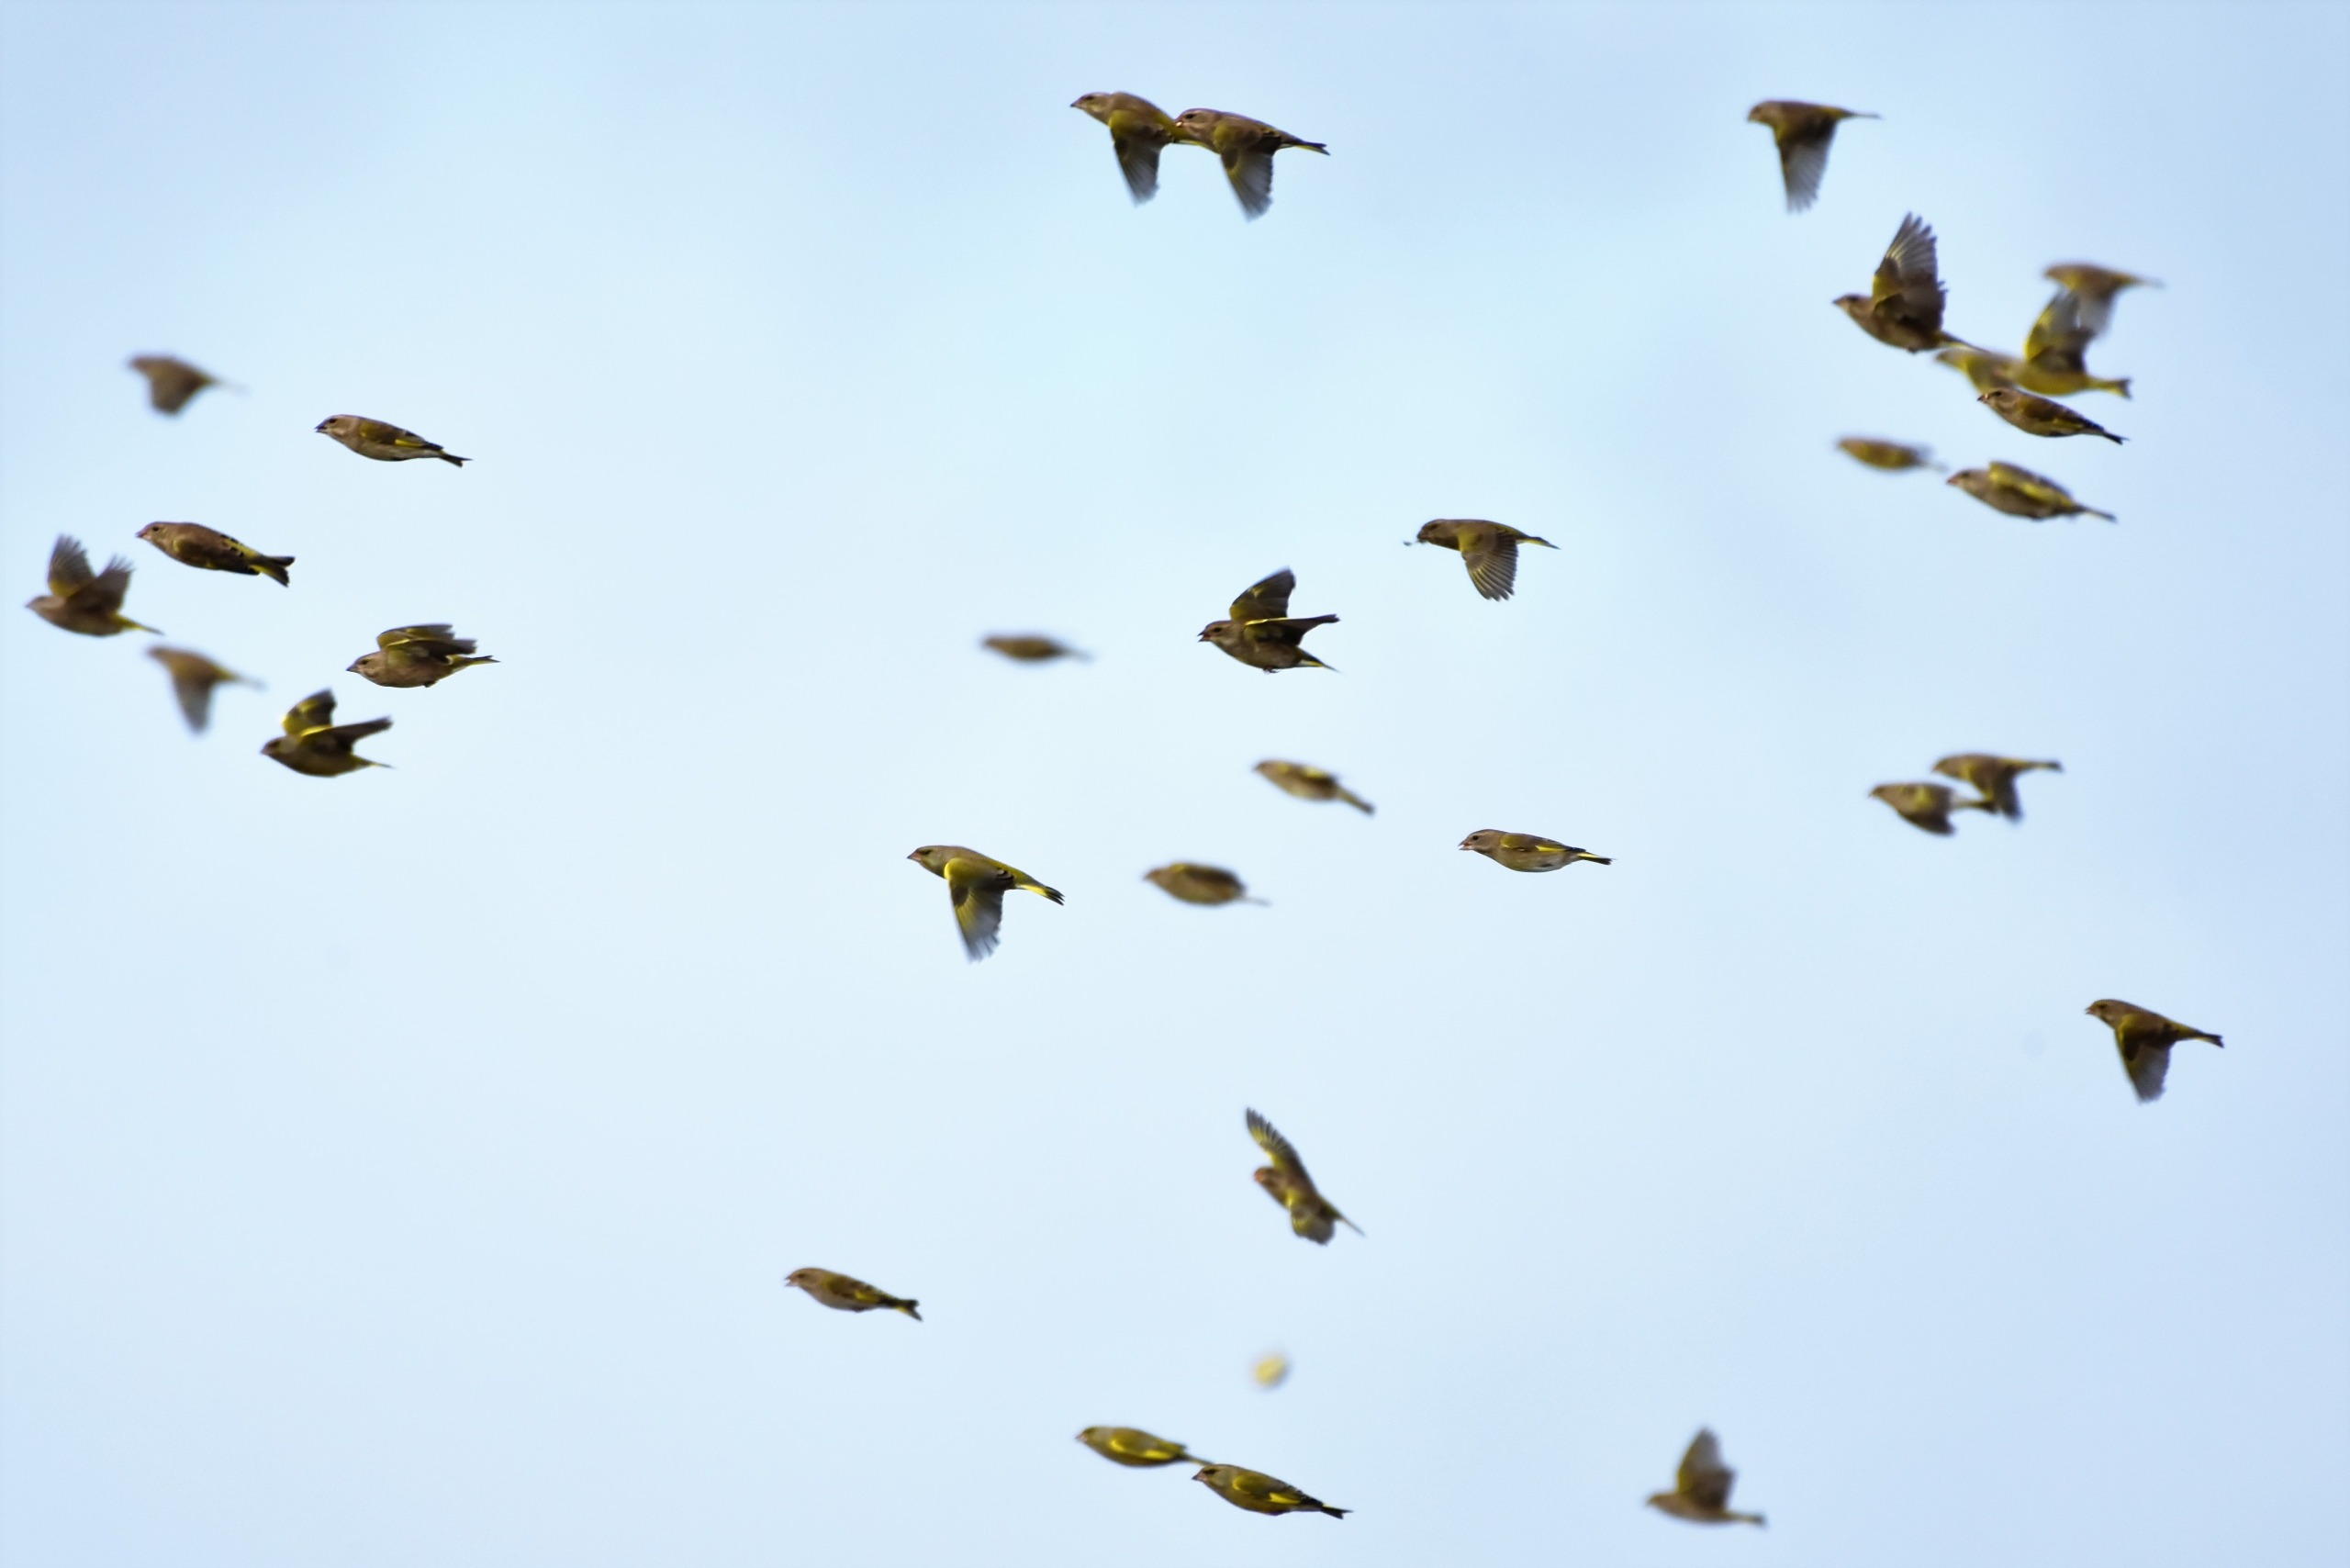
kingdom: Plantae
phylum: Tracheophyta
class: Liliopsida
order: Poales
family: Poaceae
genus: Chloris
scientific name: Chloris chloris
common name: Grønirisk
